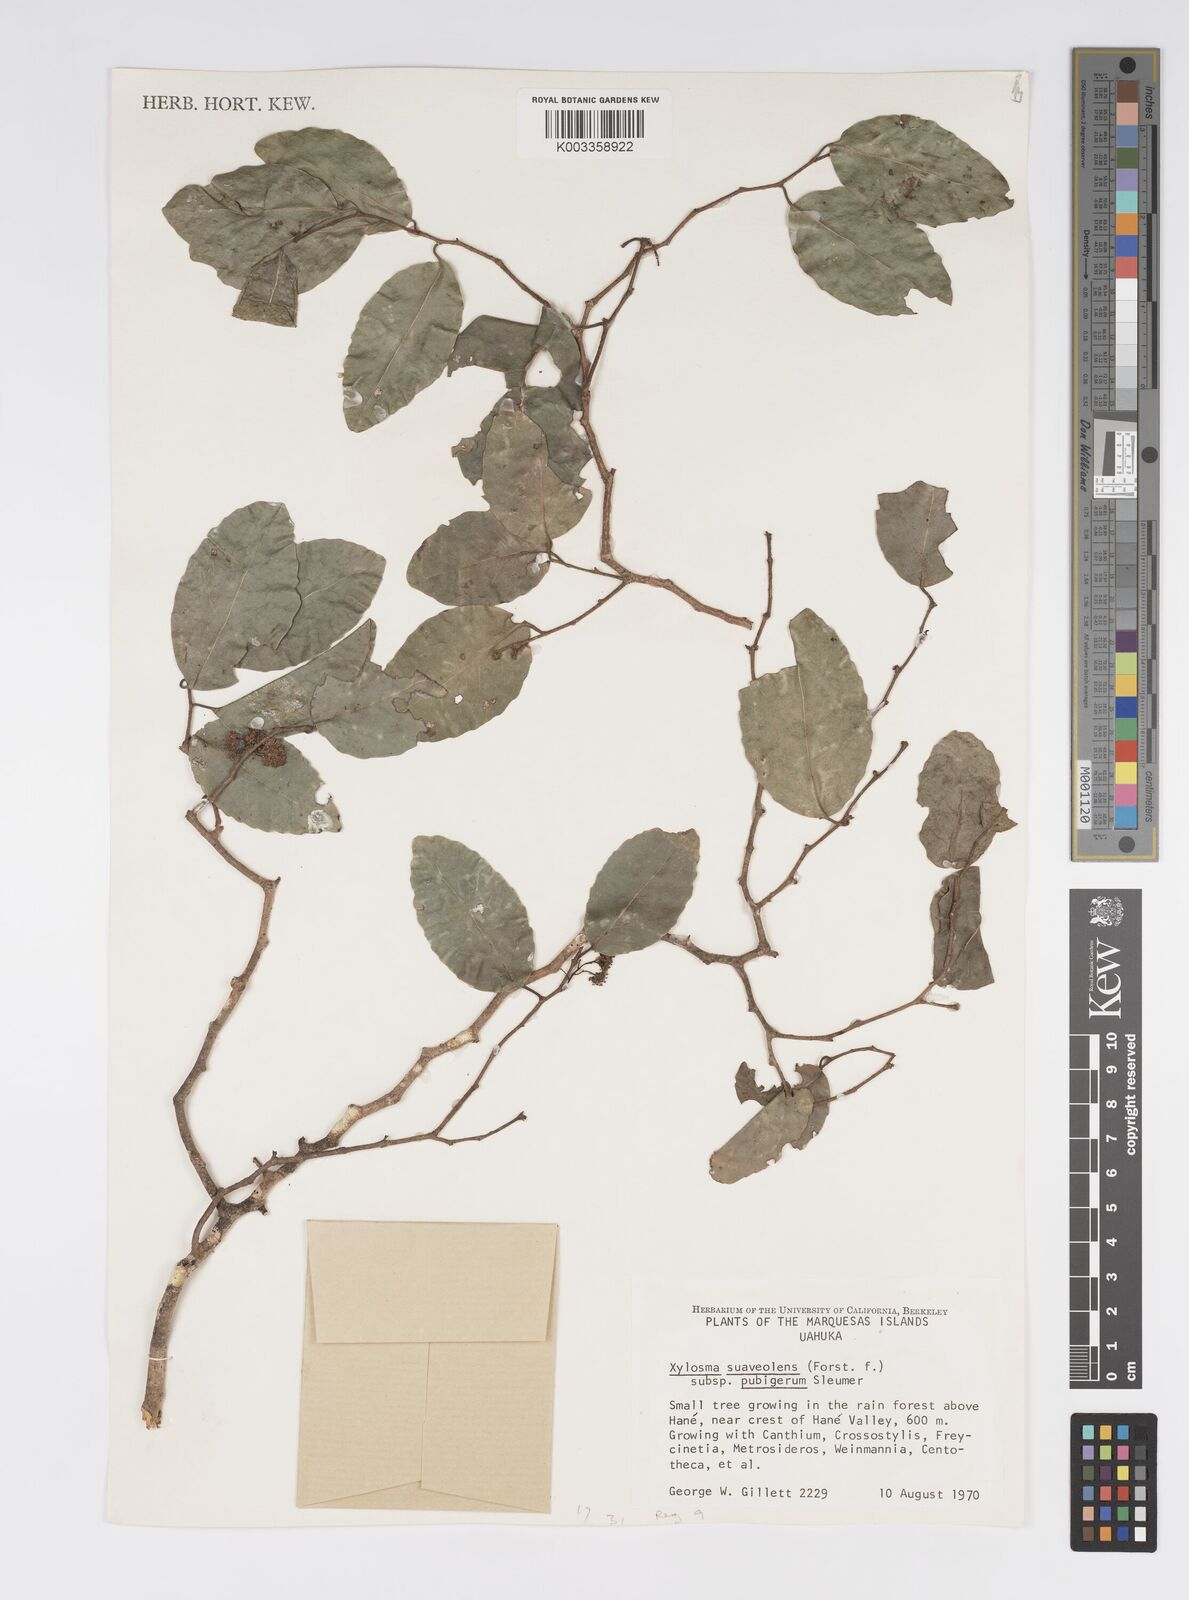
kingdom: Plantae
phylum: Tracheophyta
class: Magnoliopsida
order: Malpighiales
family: Salicaceae
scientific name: Salicaceae
